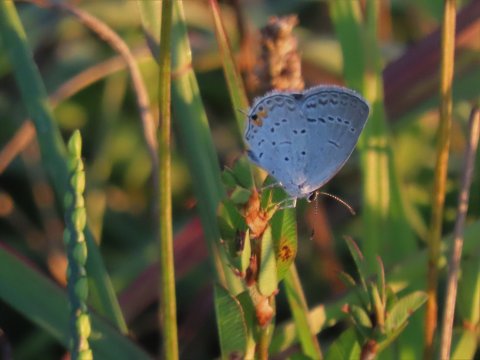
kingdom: Animalia
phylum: Arthropoda
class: Insecta
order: Lepidoptera
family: Lycaenidae
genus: Elkalyce
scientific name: Elkalyce comyntas
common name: Eastern Tailed-Blue
